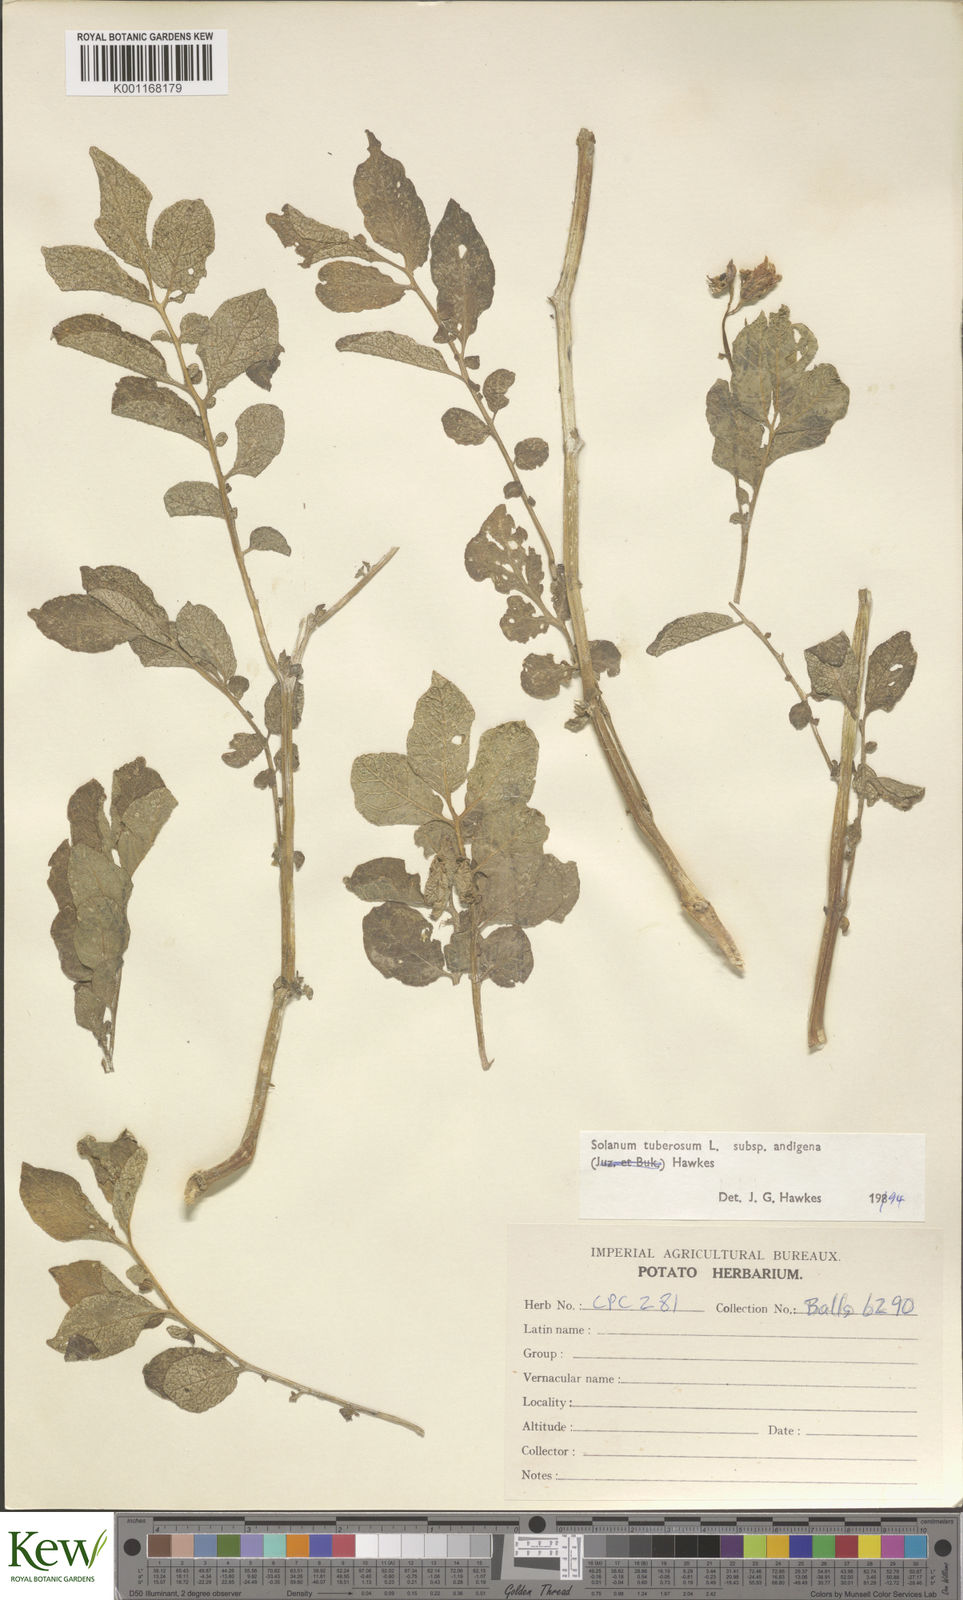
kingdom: Plantae
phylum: Tracheophyta
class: Magnoliopsida
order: Solanales
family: Solanaceae
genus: Solanum
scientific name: Solanum tuberosum
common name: Potato
